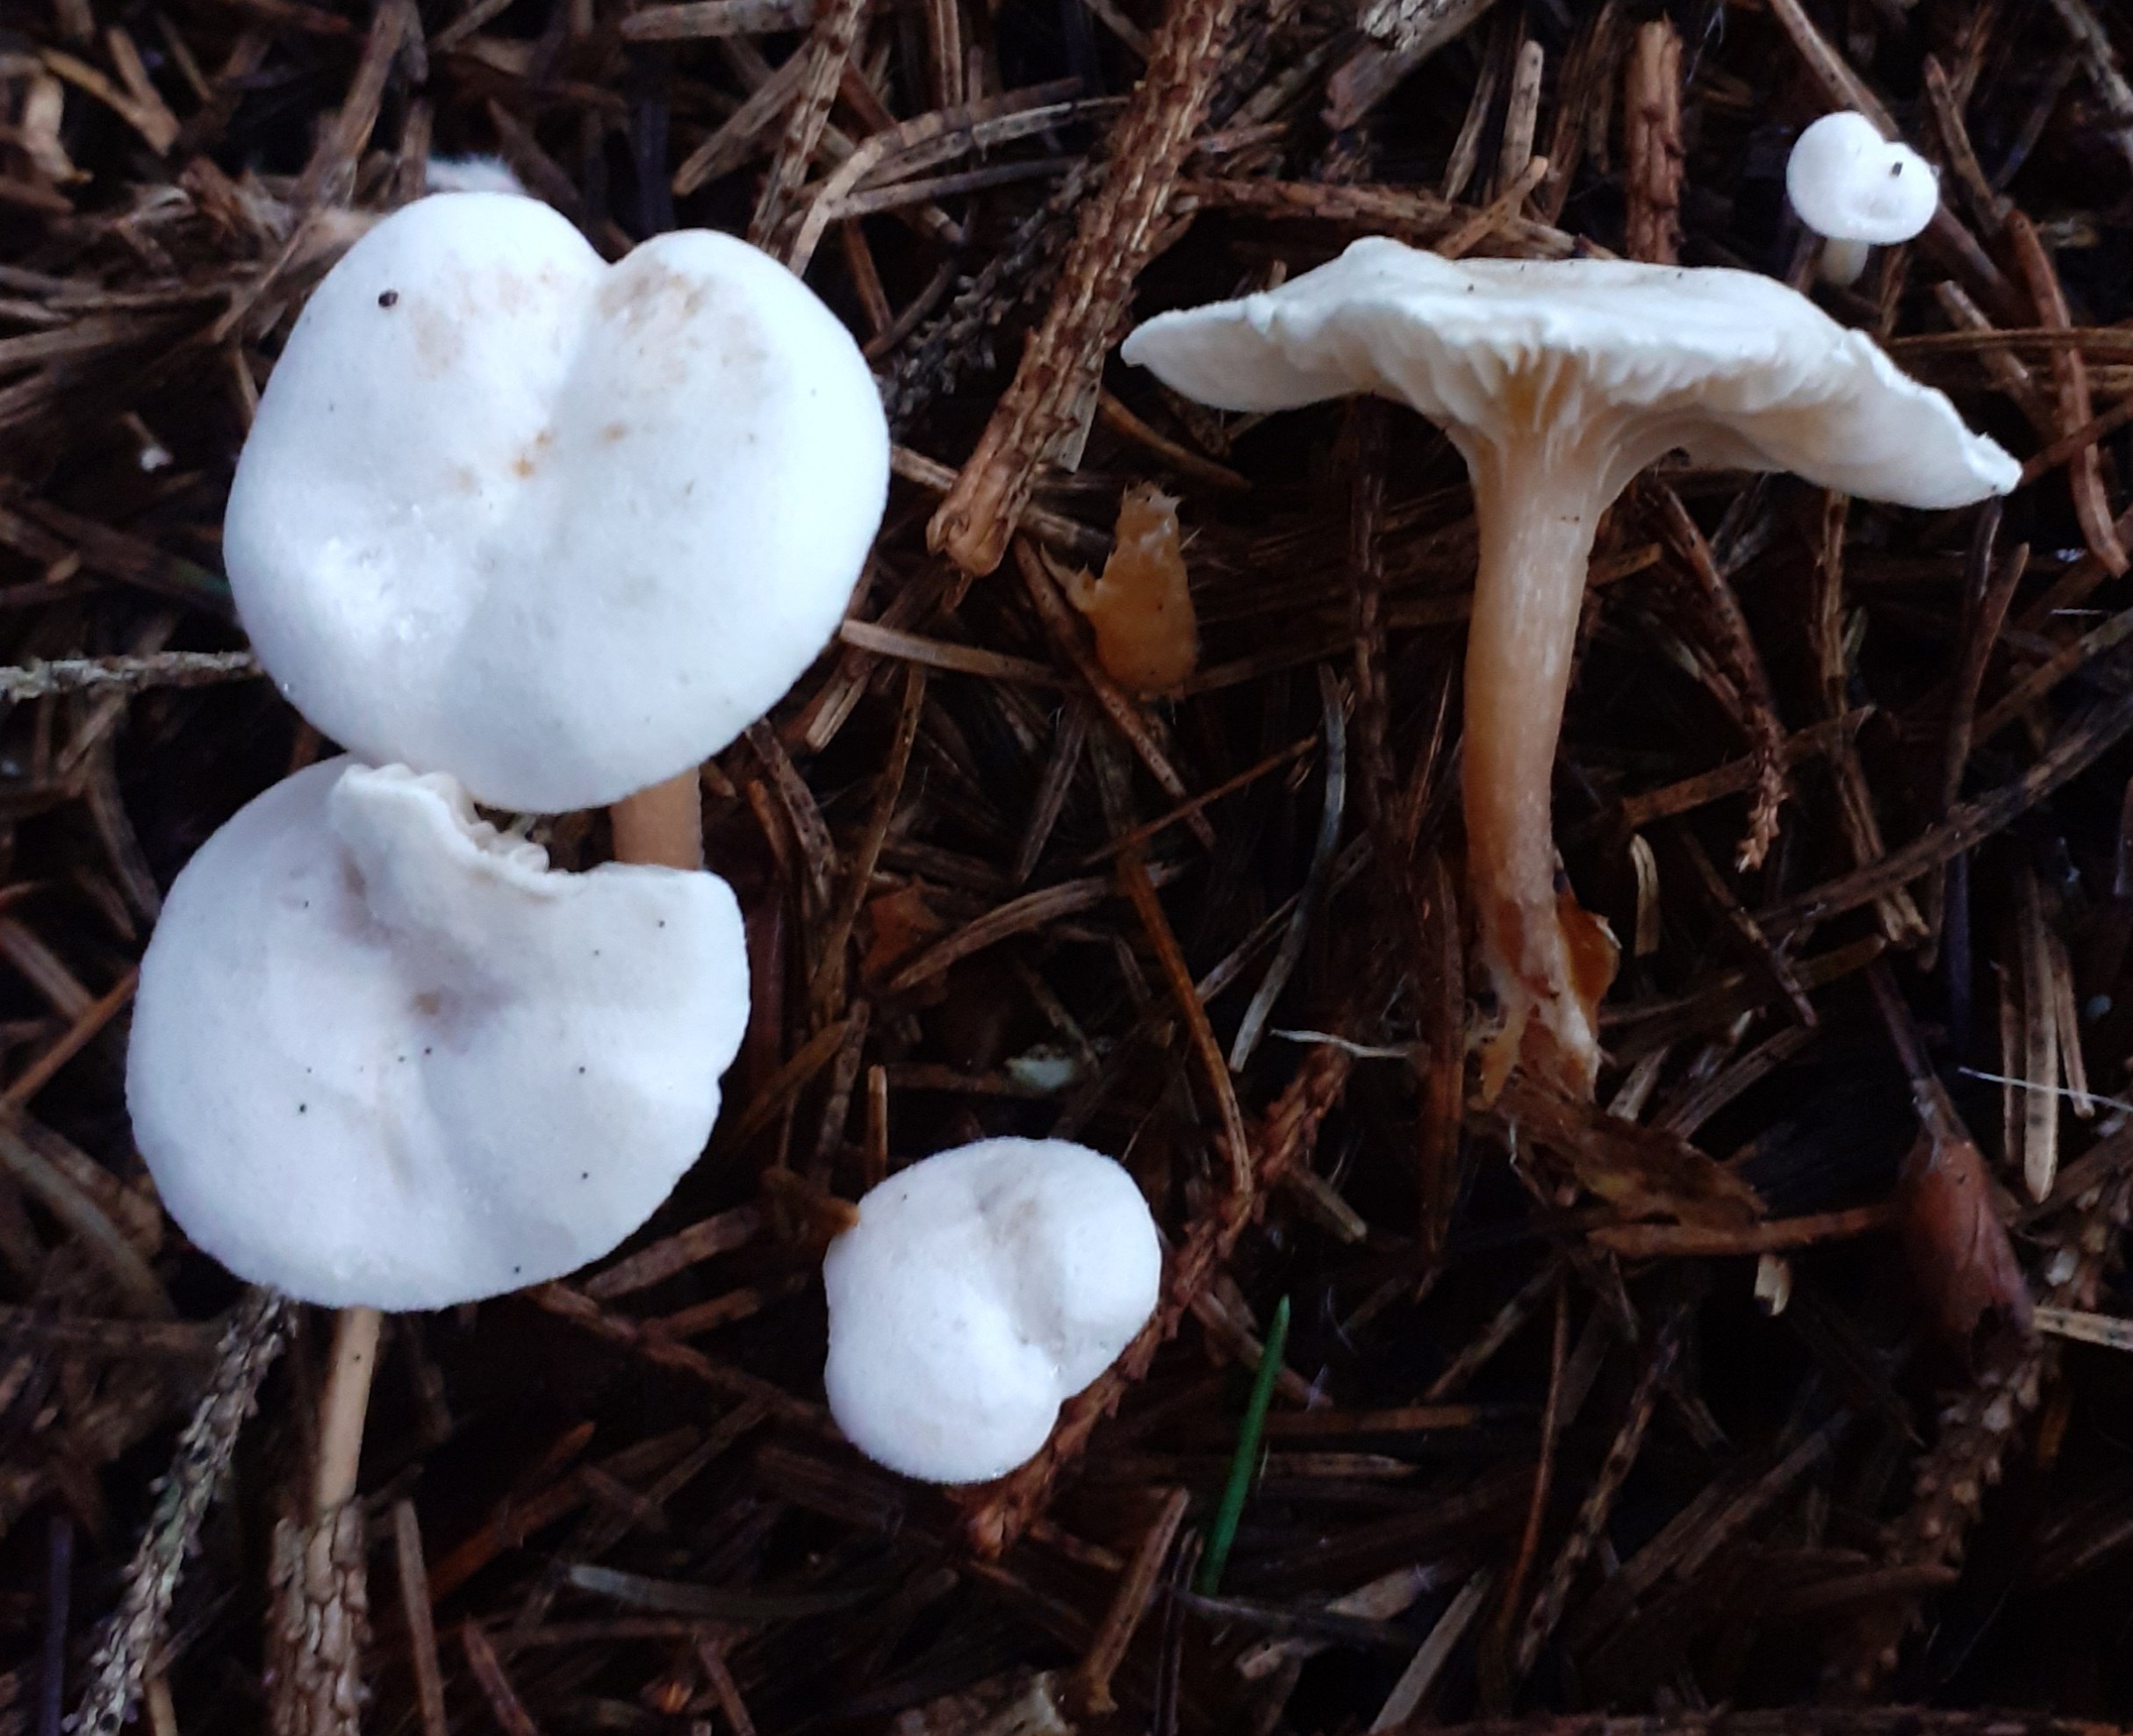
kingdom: Fungi
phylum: Basidiomycota
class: Agaricomycetes
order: Agaricales
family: Tricholomataceae
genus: Leucocybe
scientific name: Leucocybe candicans
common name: kridt-tragthat
